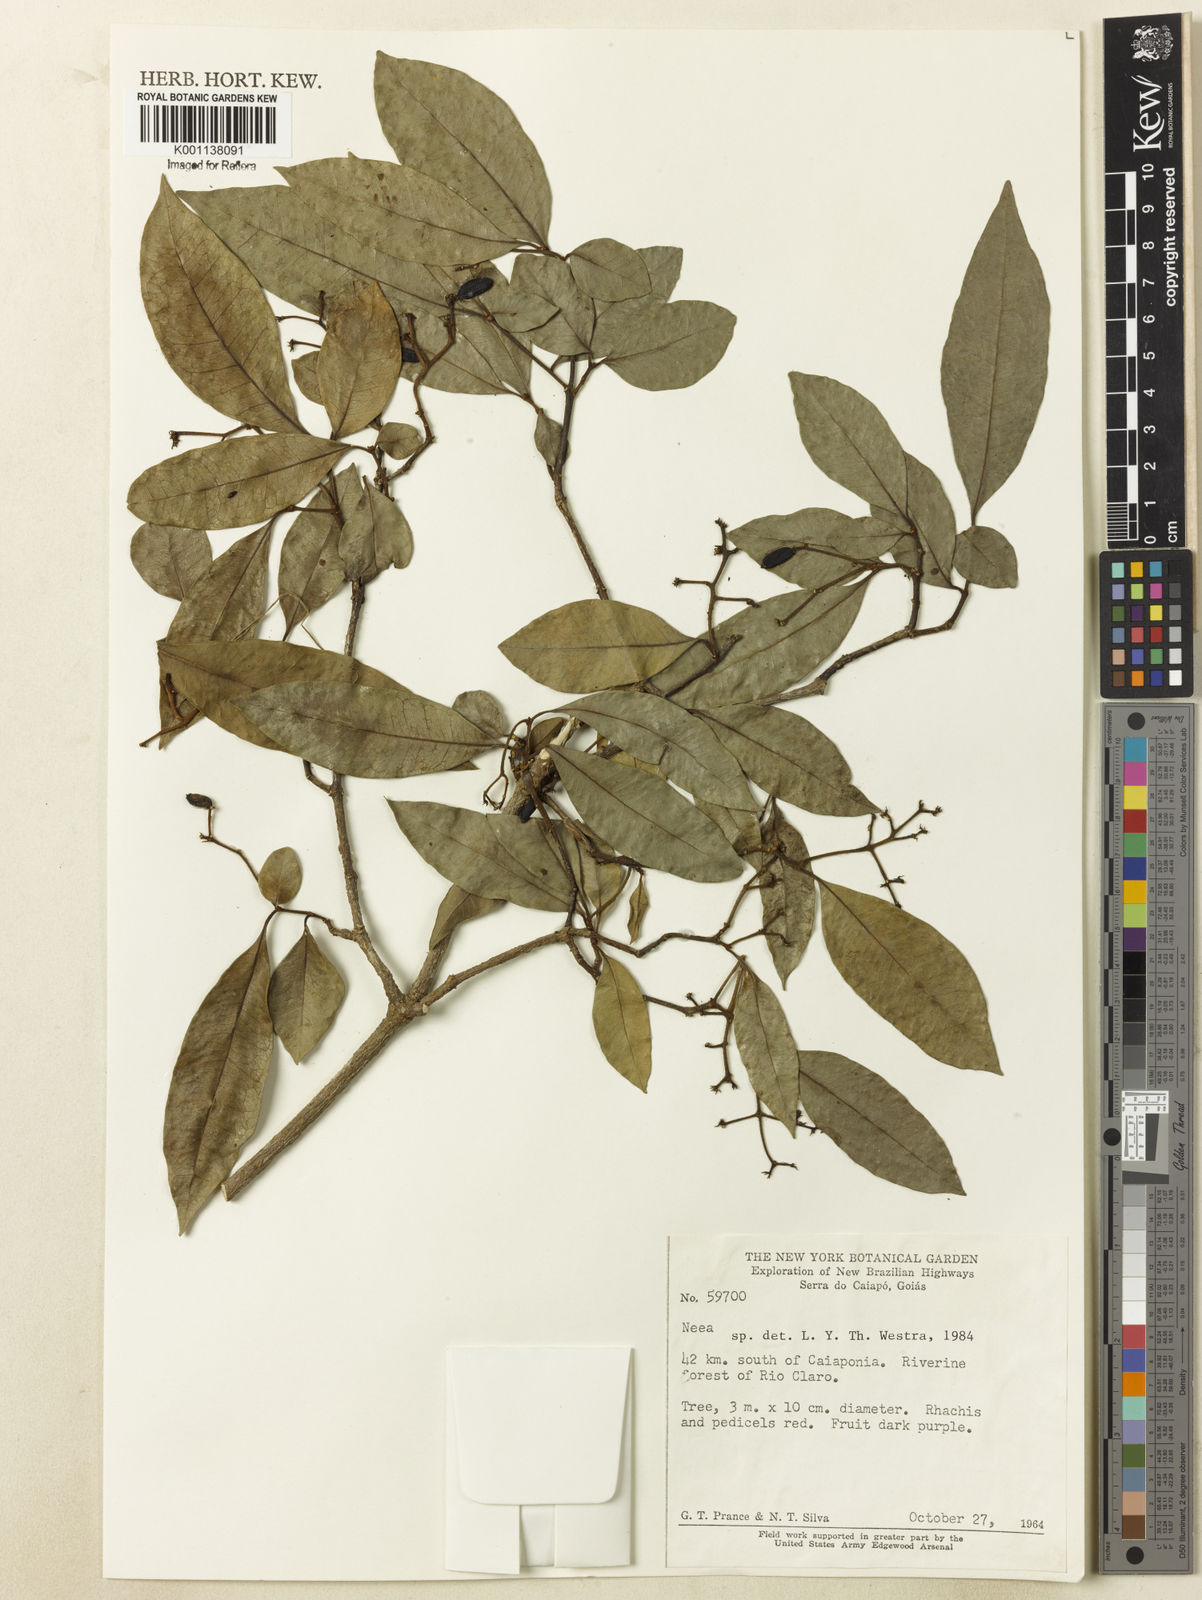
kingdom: Plantae
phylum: Tracheophyta
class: Magnoliopsida
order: Caryophyllales
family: Nyctaginaceae
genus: Neea
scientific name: Neea
